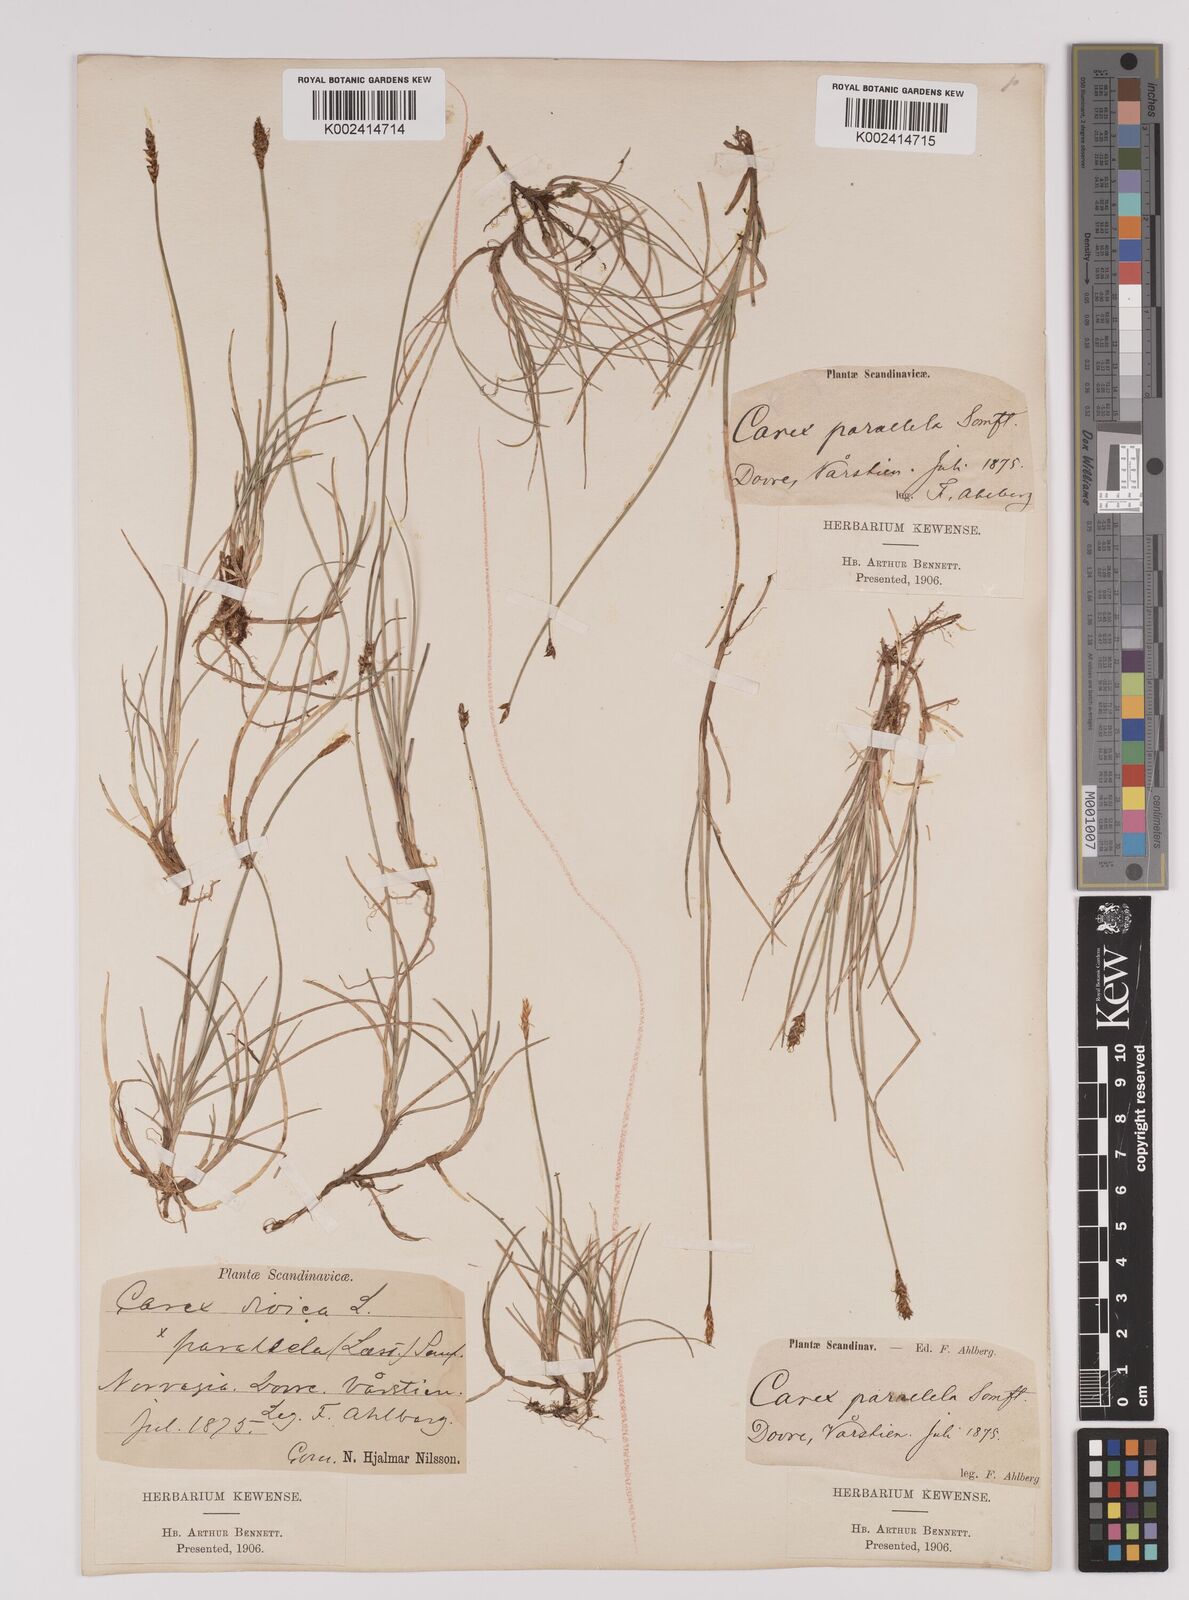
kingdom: Plantae
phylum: Tracheophyta
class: Liliopsida
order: Poales
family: Cyperaceae
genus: Carex
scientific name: Carex parallela
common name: Parallel sedge
